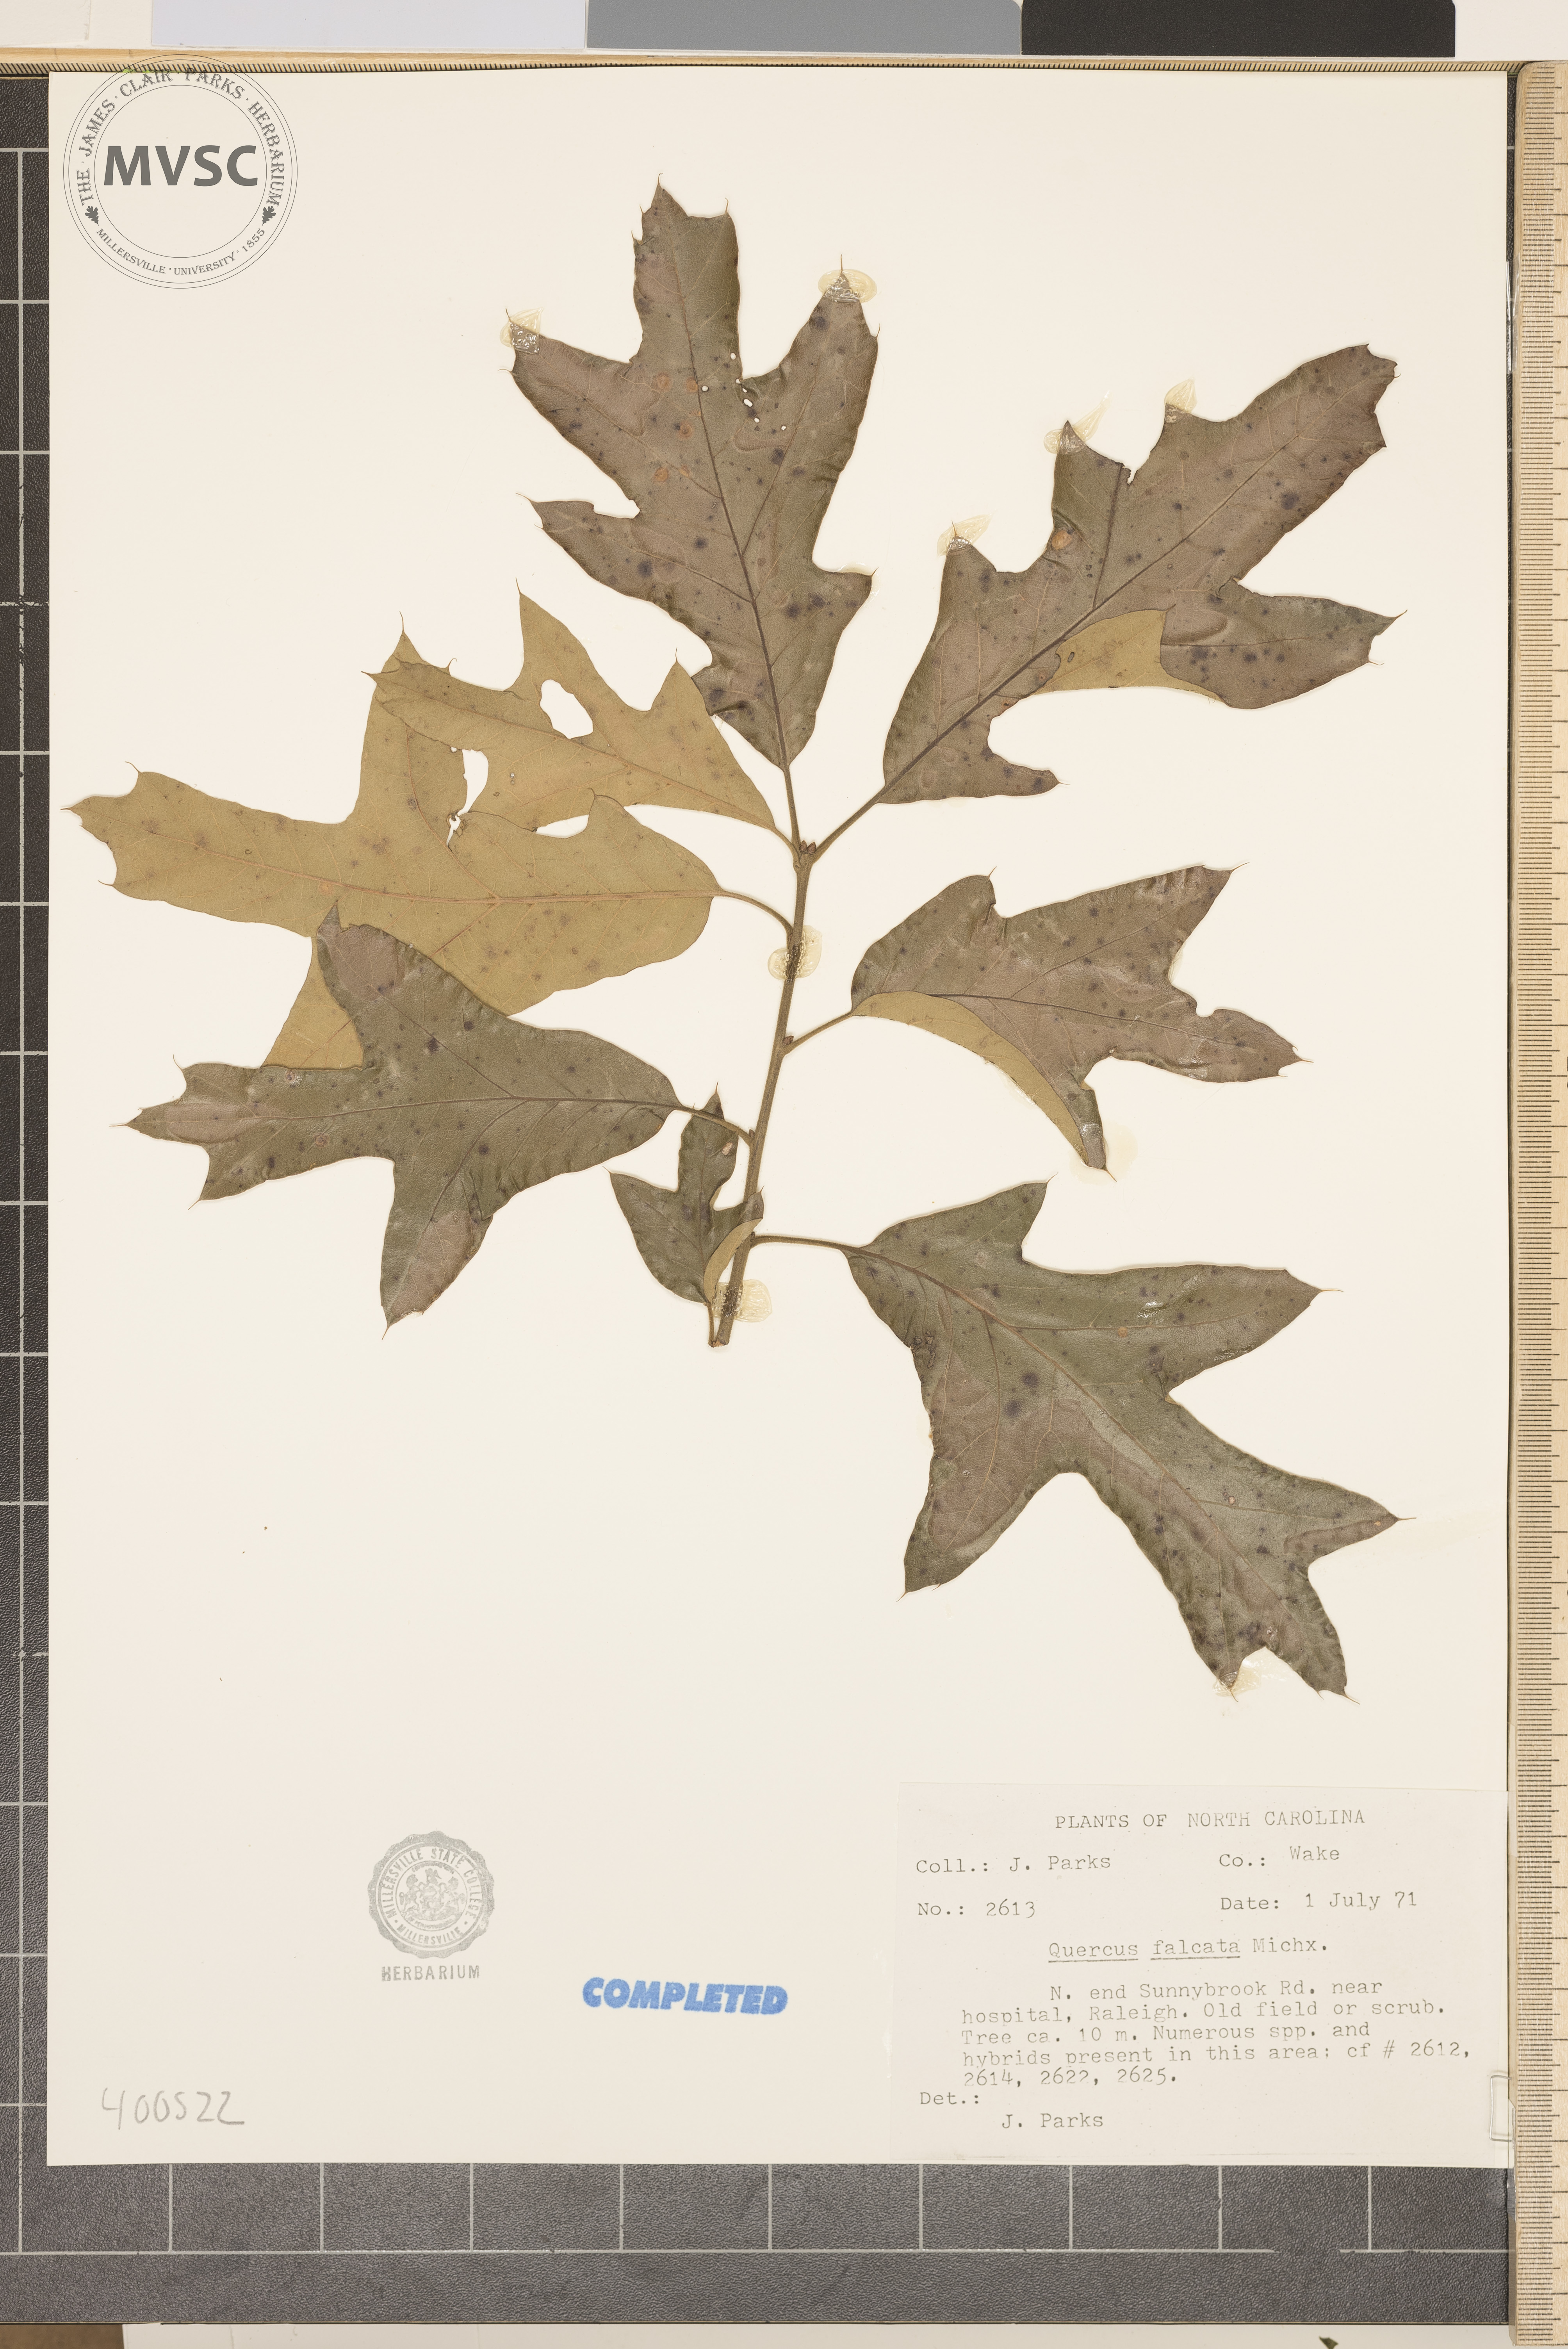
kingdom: Plantae
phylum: Tracheophyta
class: Magnoliopsida
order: Fagales
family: Fagaceae
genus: Quercus
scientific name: Quercus falcata
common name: southern red oak
